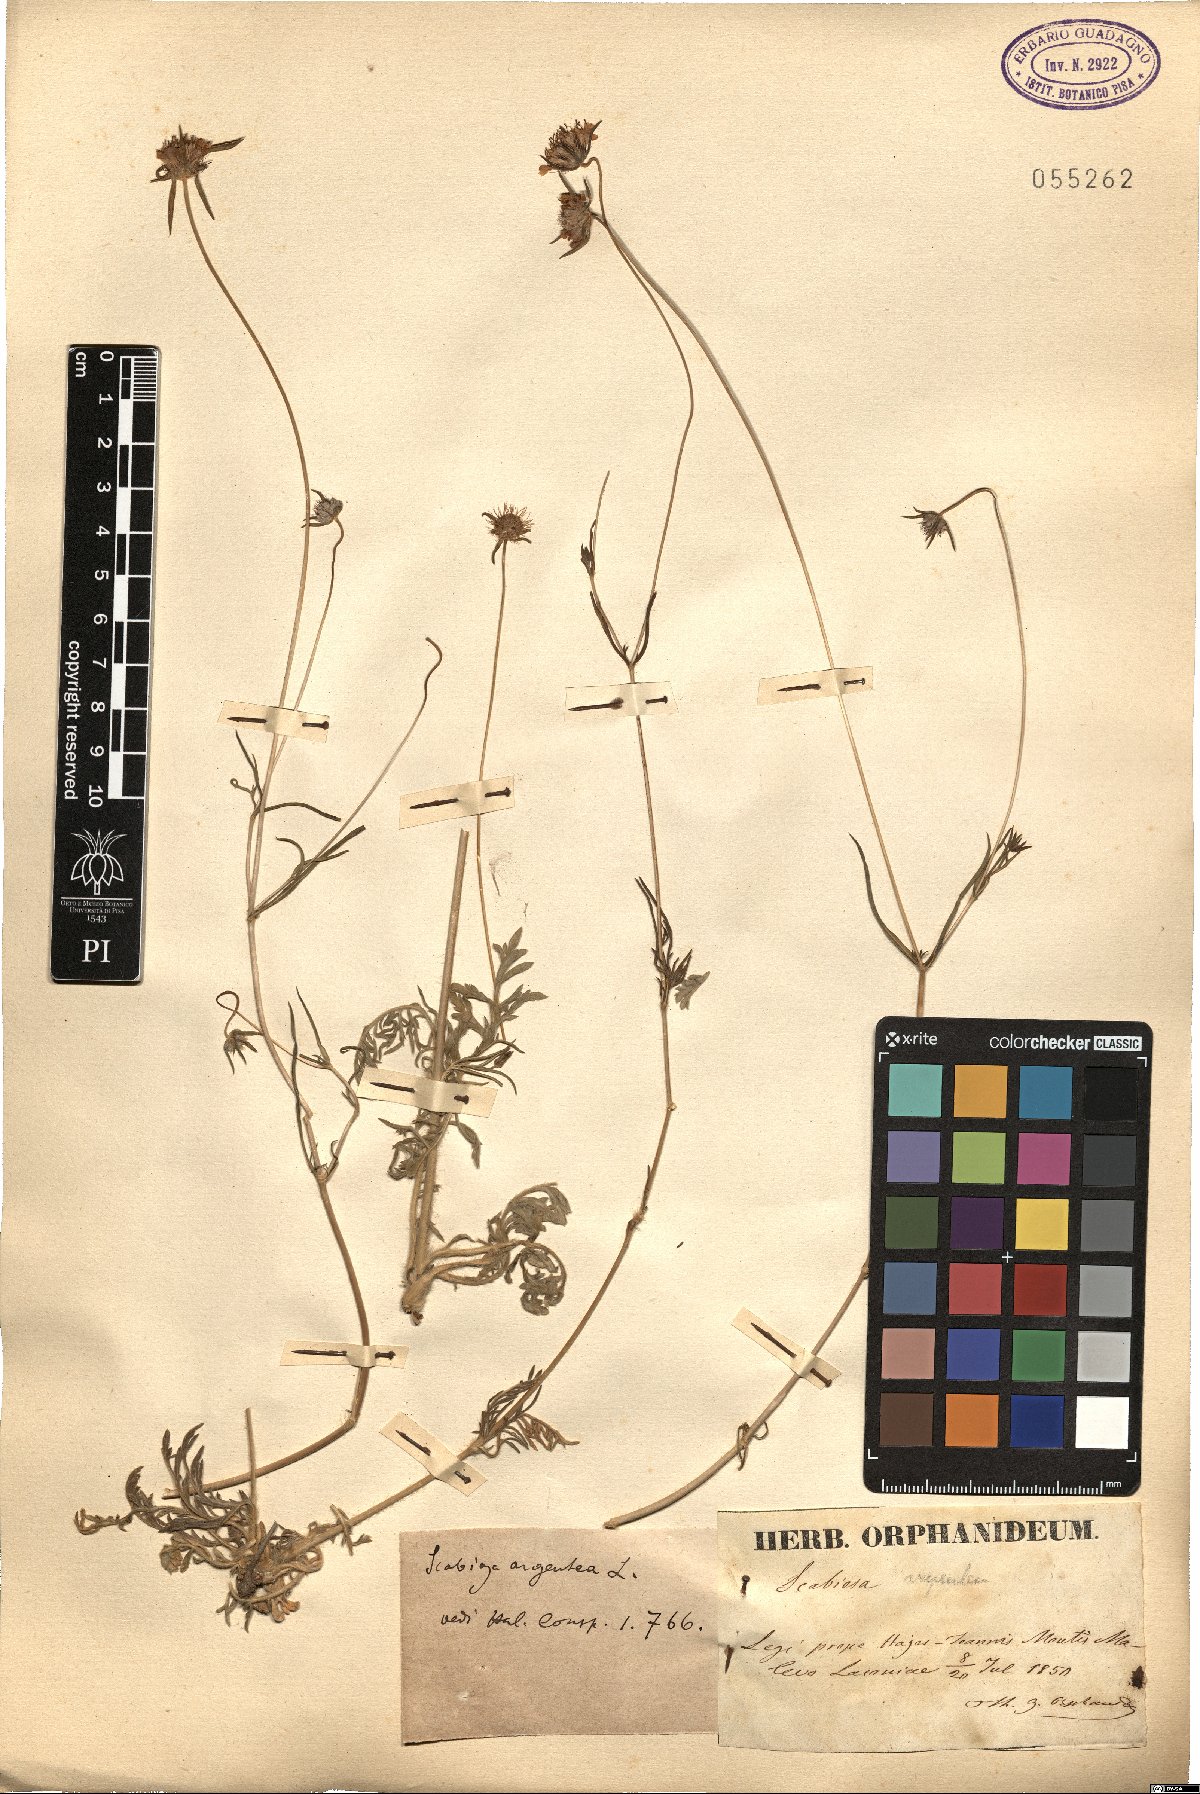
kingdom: Plantae
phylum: Tracheophyta
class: Magnoliopsida
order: Dipsacales
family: Caprifoliaceae
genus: Lomelosia
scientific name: Lomelosia argentea
